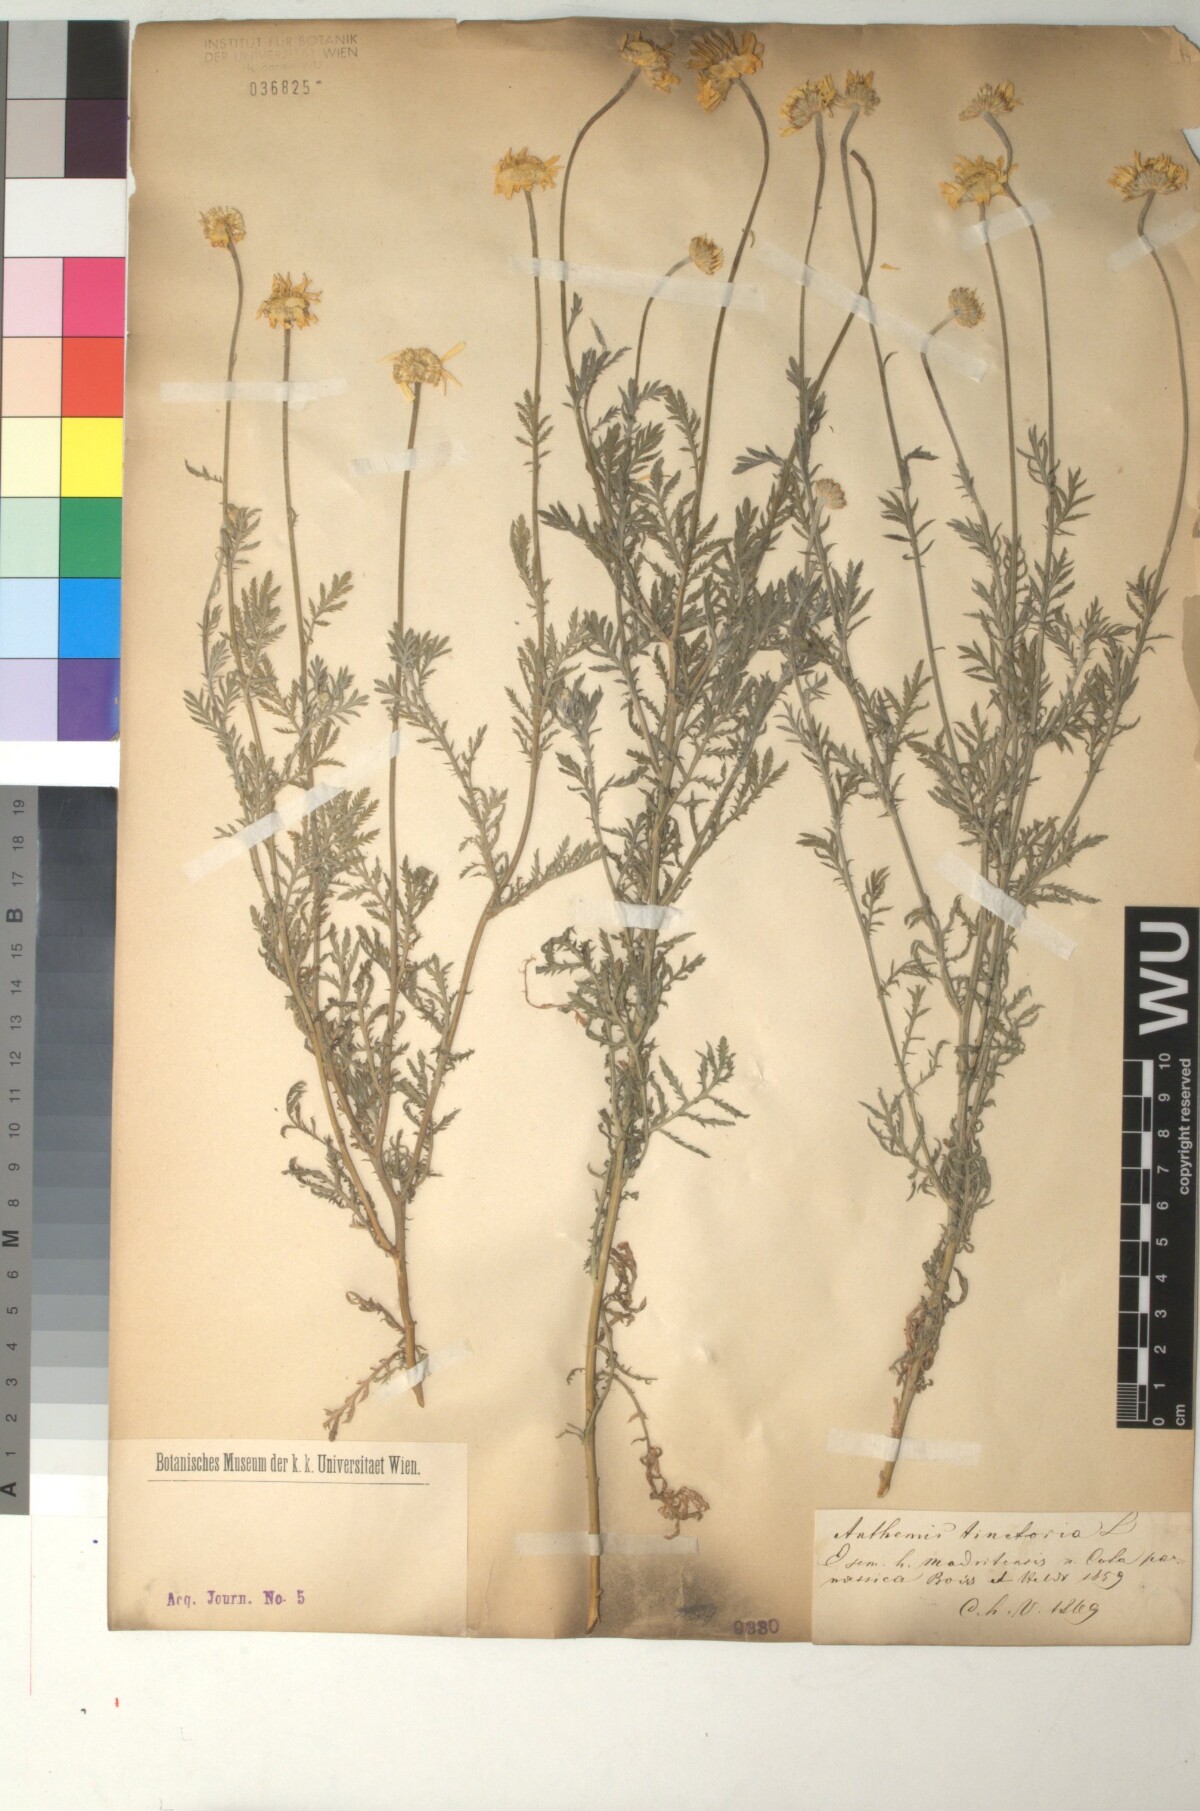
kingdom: Plantae
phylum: Tracheophyta
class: Magnoliopsida
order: Asterales
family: Asteraceae
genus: Cota
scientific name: Cota tinctoria
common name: Golden chamomile
